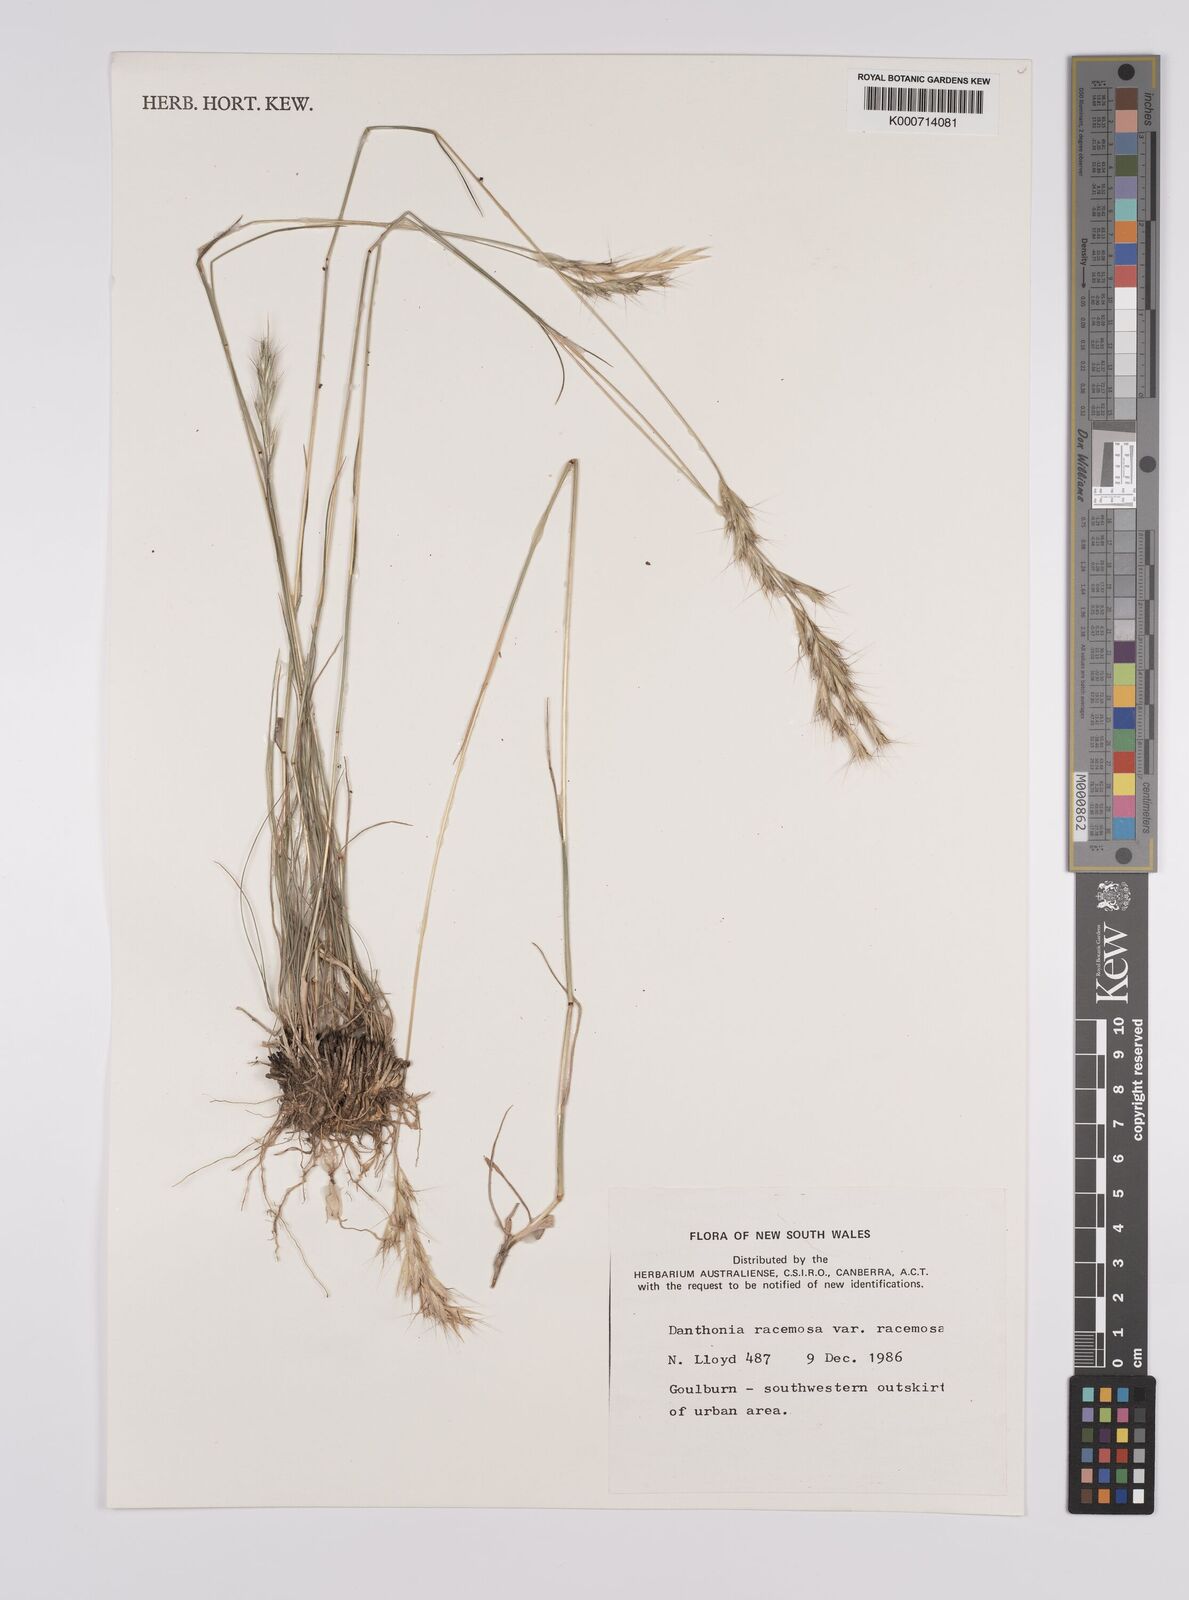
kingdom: Plantae
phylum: Tracheophyta
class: Liliopsida
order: Poales
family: Poaceae
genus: Rytidosperma
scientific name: Rytidosperma racemosum
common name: Wallaby-grass
